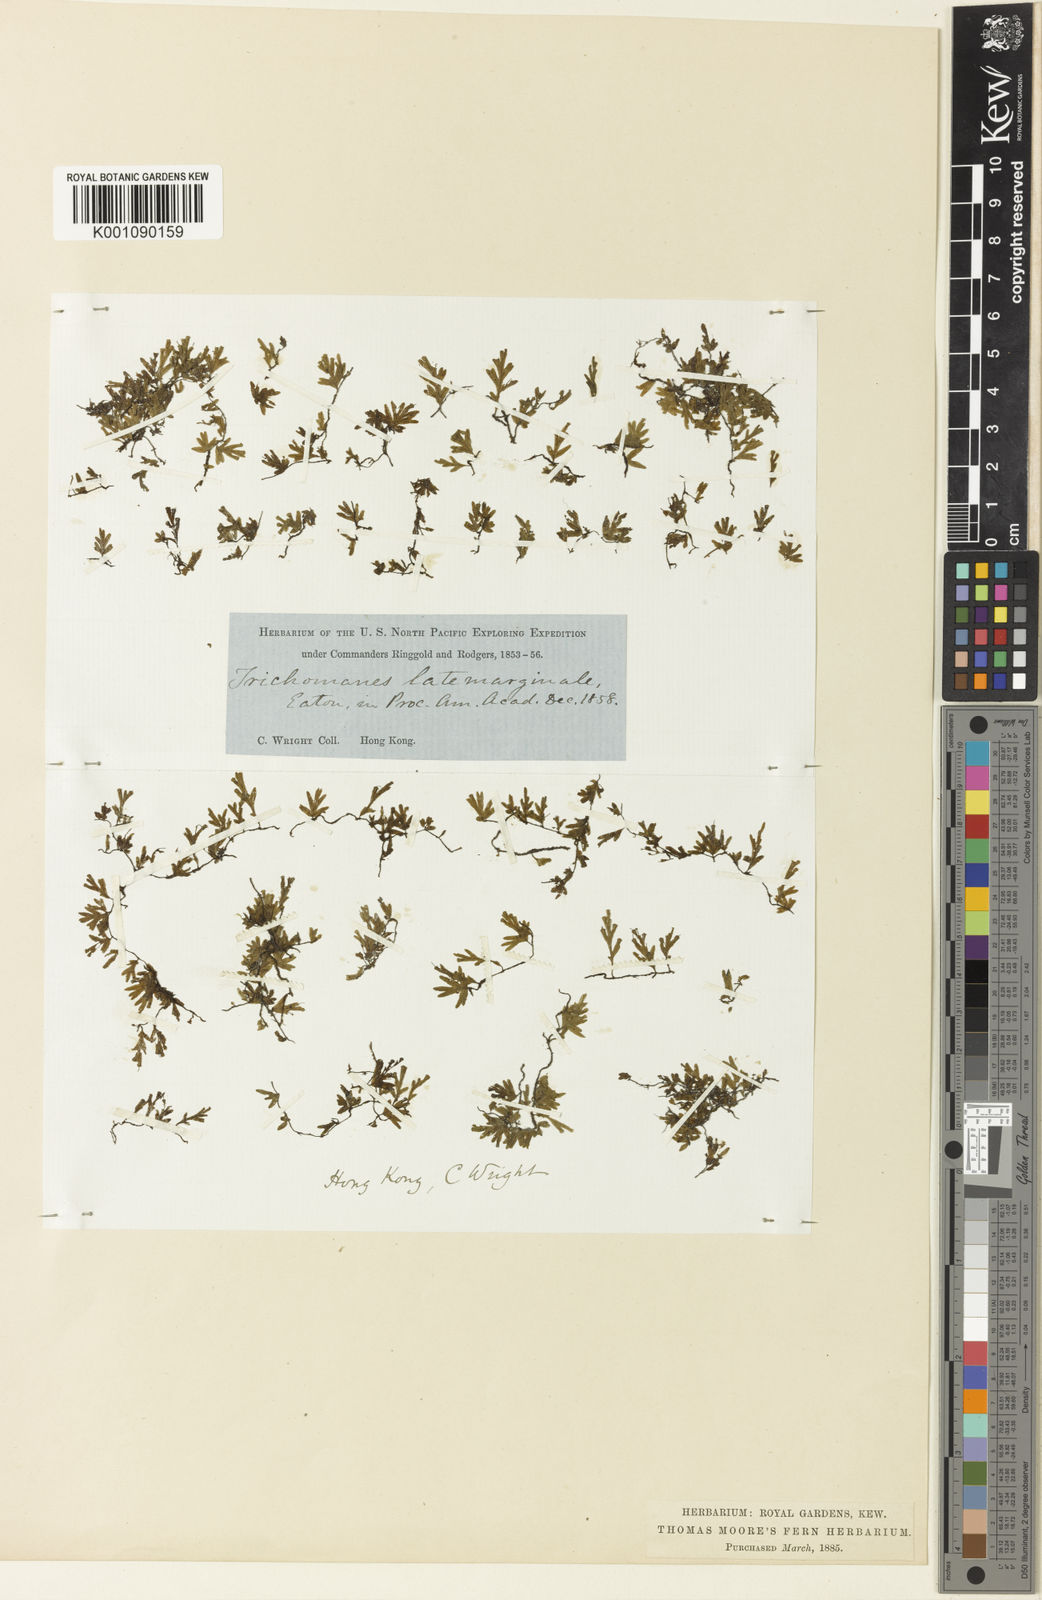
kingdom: Plantae
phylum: Tracheophyta
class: Polypodiopsida
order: Hymenophyllales
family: Hymenophyllaceae
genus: Crepidomanes
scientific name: Crepidomanes latemarginale
